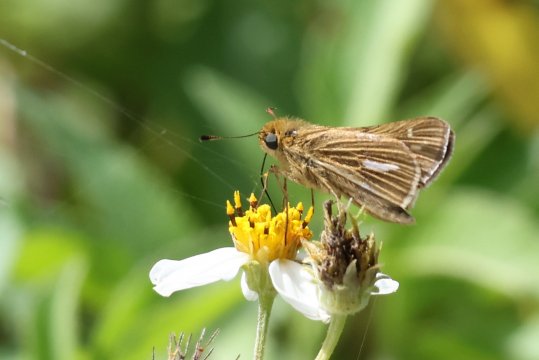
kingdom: Animalia
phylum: Arthropoda
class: Insecta
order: Lepidoptera
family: Hesperiidae
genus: Panoquina
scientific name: Panoquina panoquin
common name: Salt Marsh Skipper
